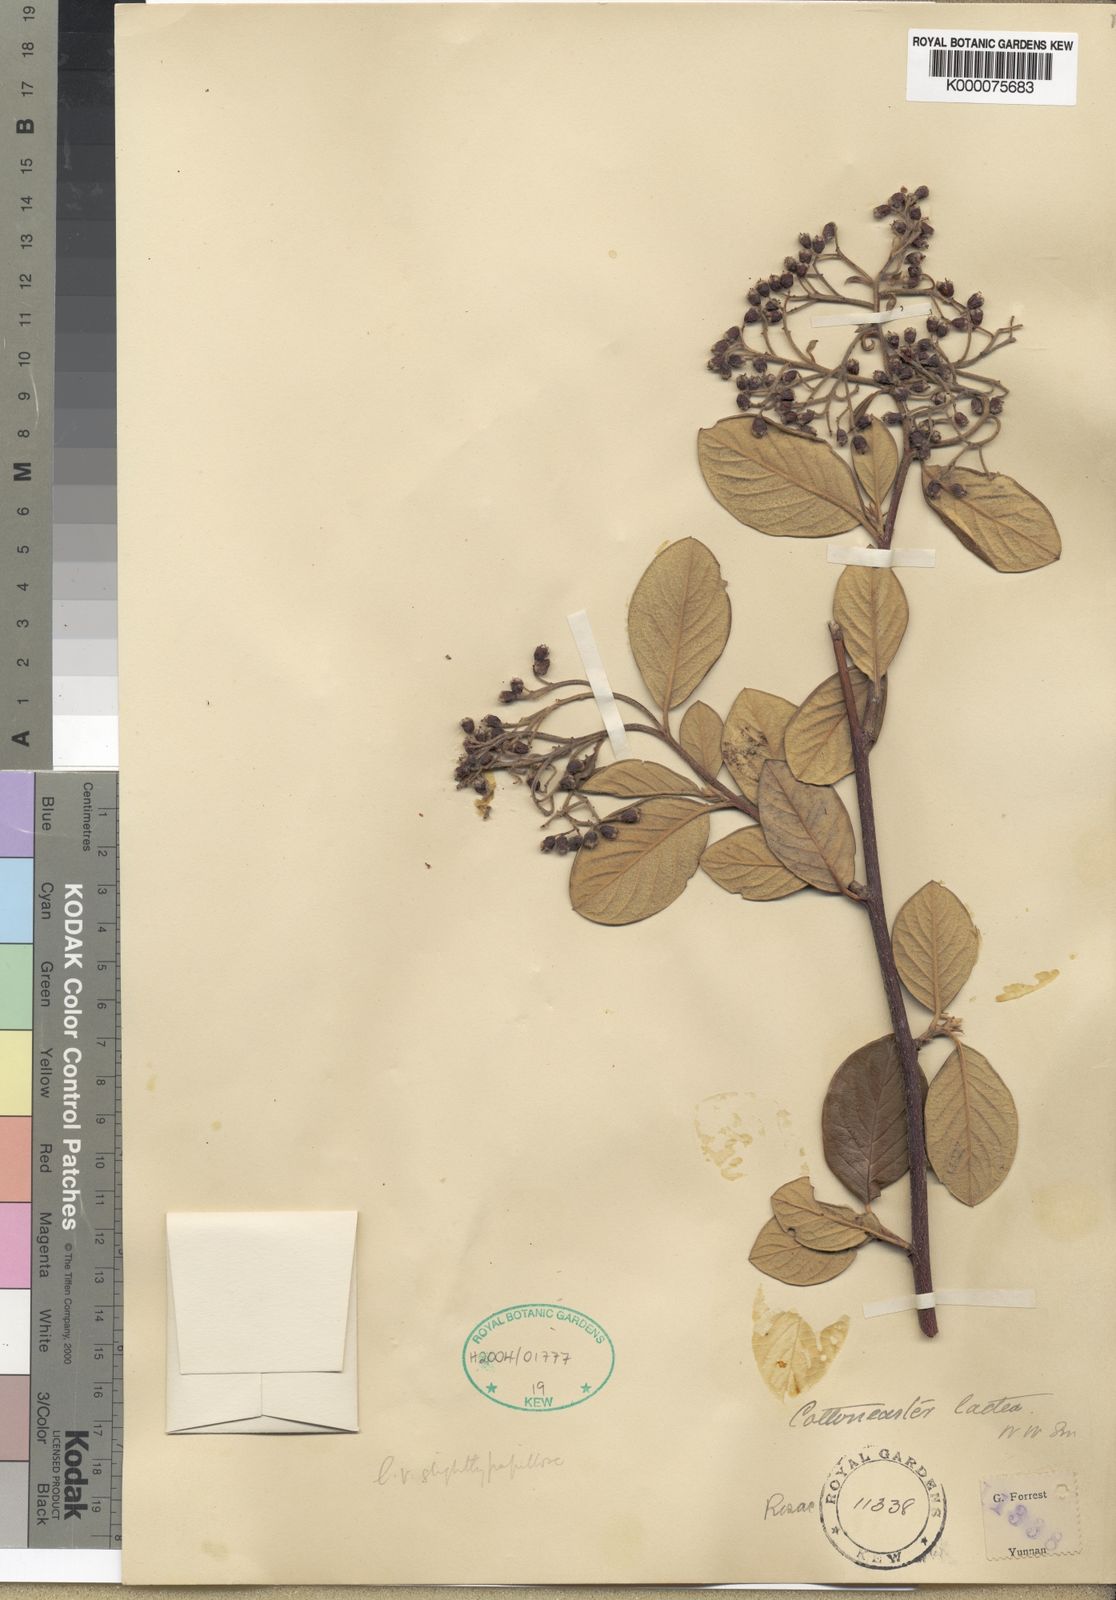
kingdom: Plantae
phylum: Tracheophyta
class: Magnoliopsida
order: Rosales
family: Rosaceae
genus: Cotoneaster
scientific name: Cotoneaster coriaceus
